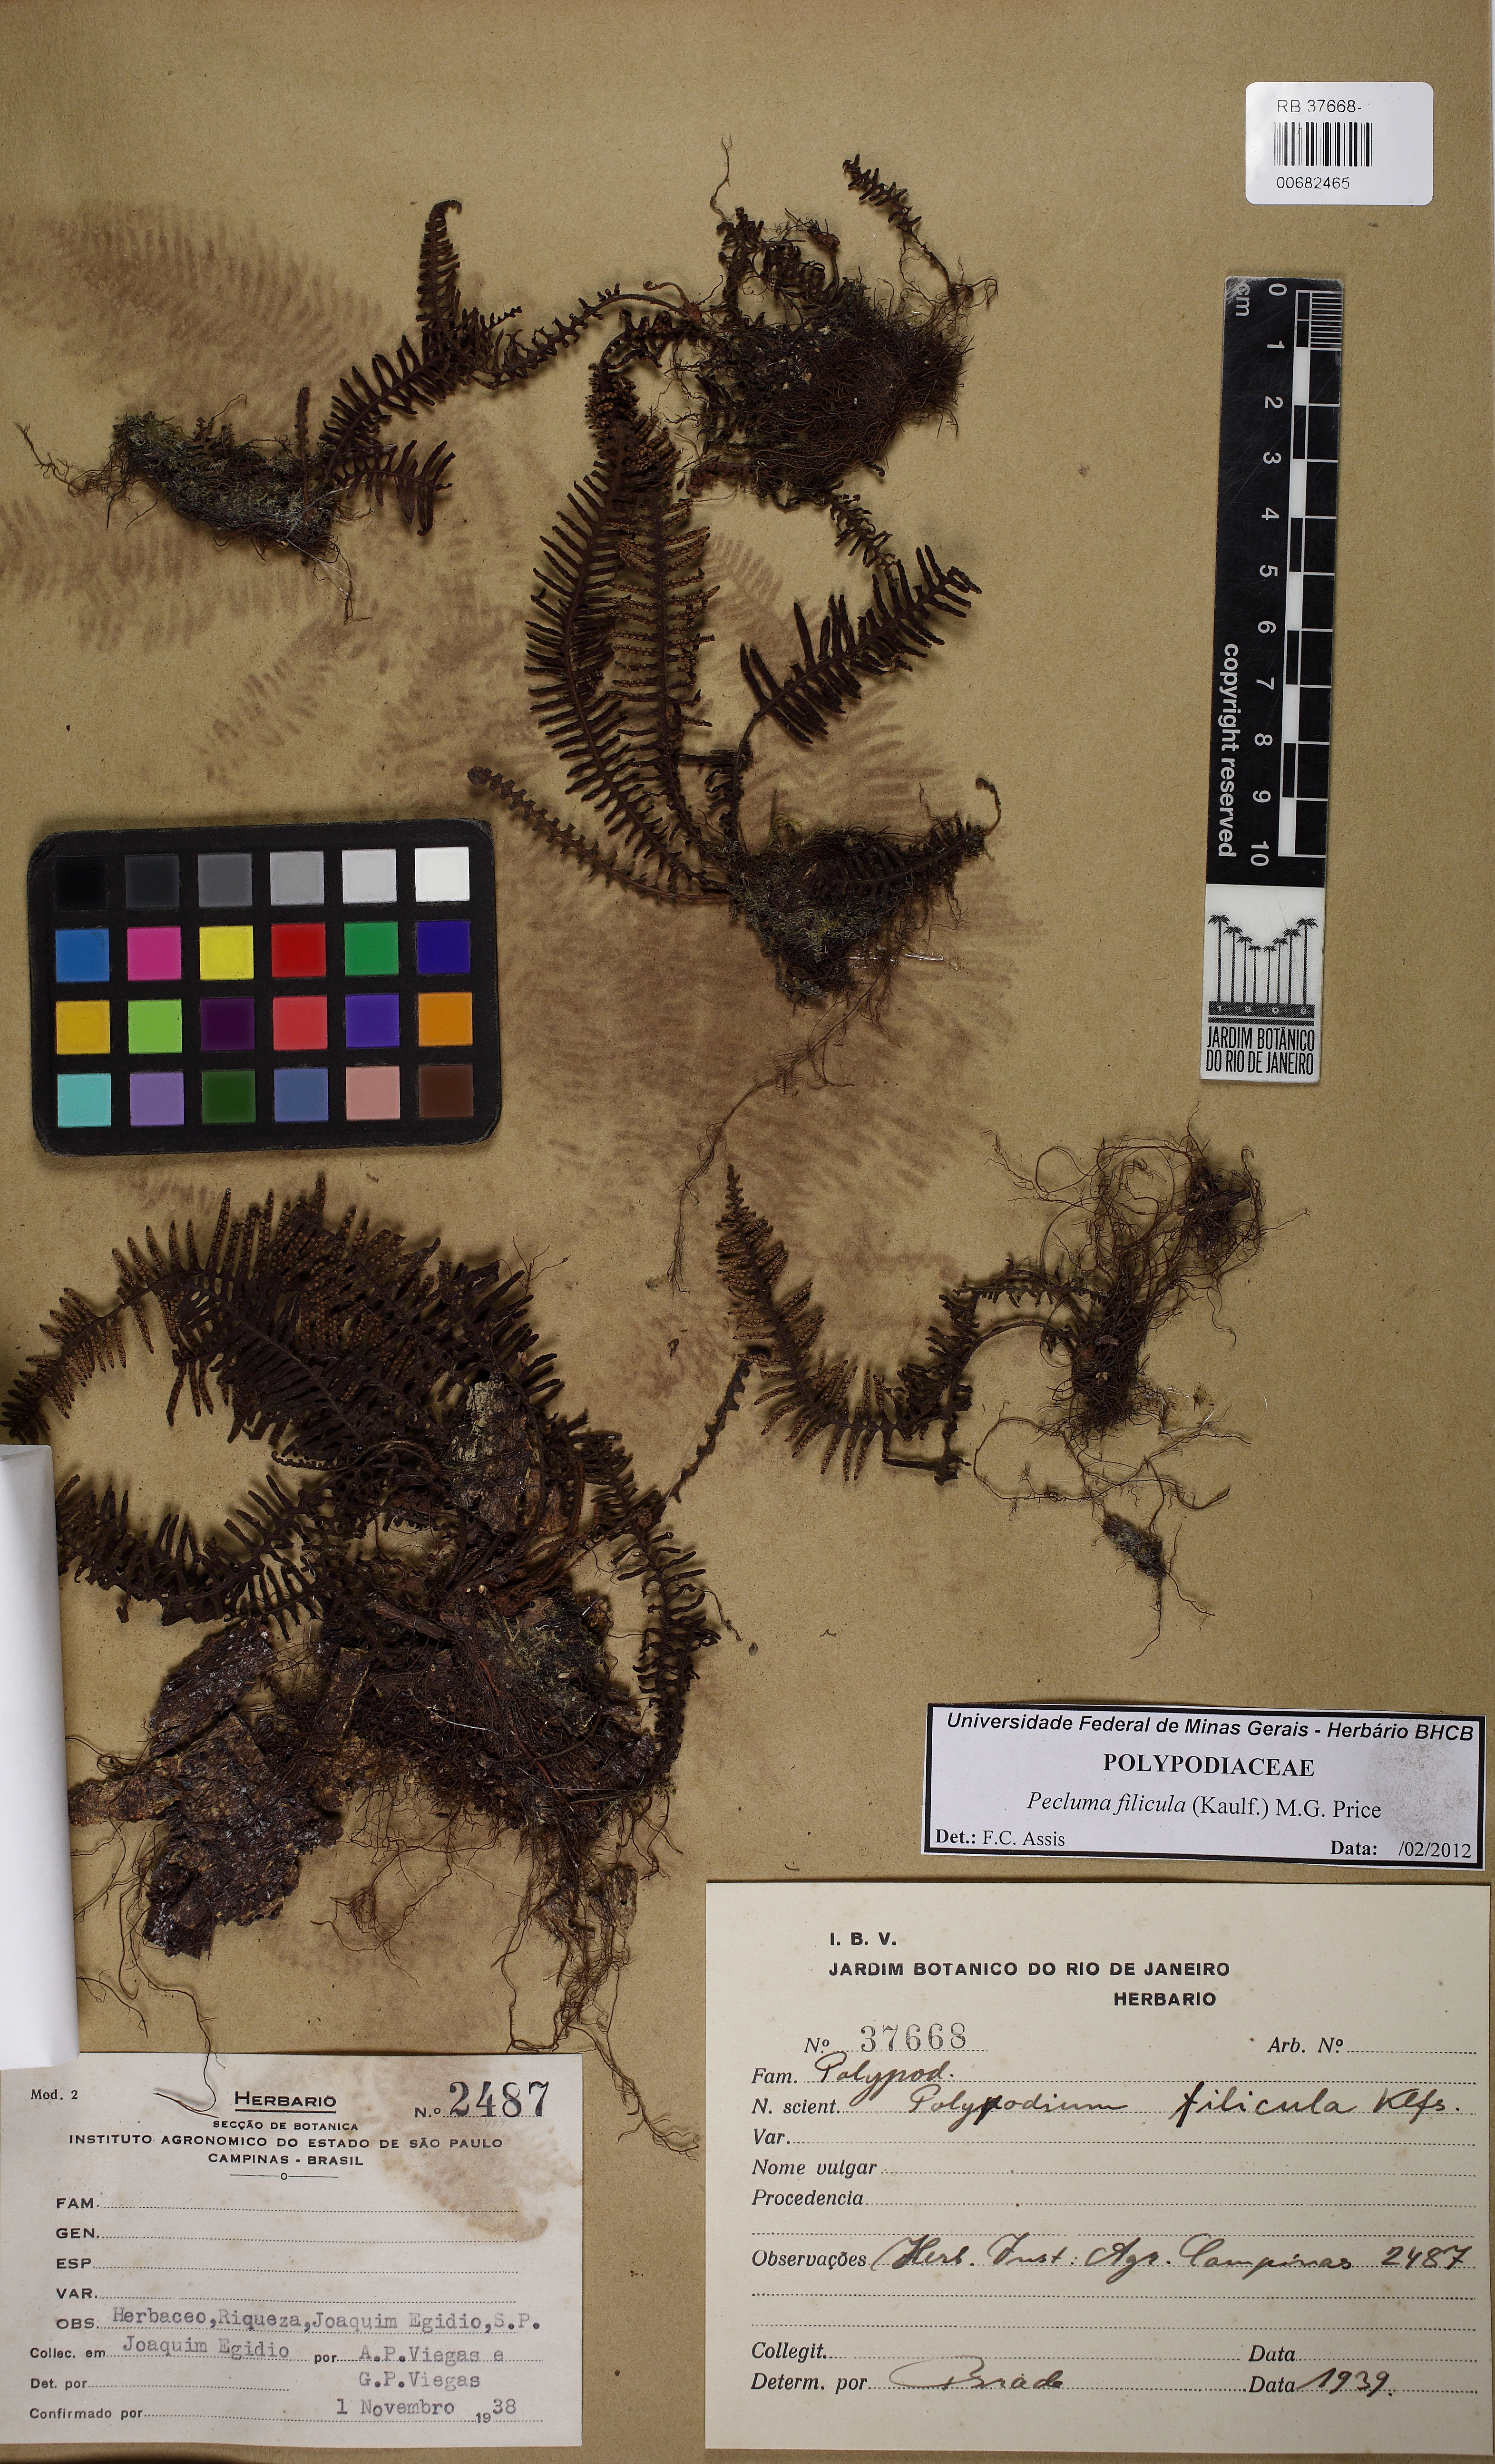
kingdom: Plantae
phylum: Tracheophyta
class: Polypodiopsida
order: Polypodiales
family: Polypodiaceae
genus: Pecluma
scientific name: Pecluma filicula
